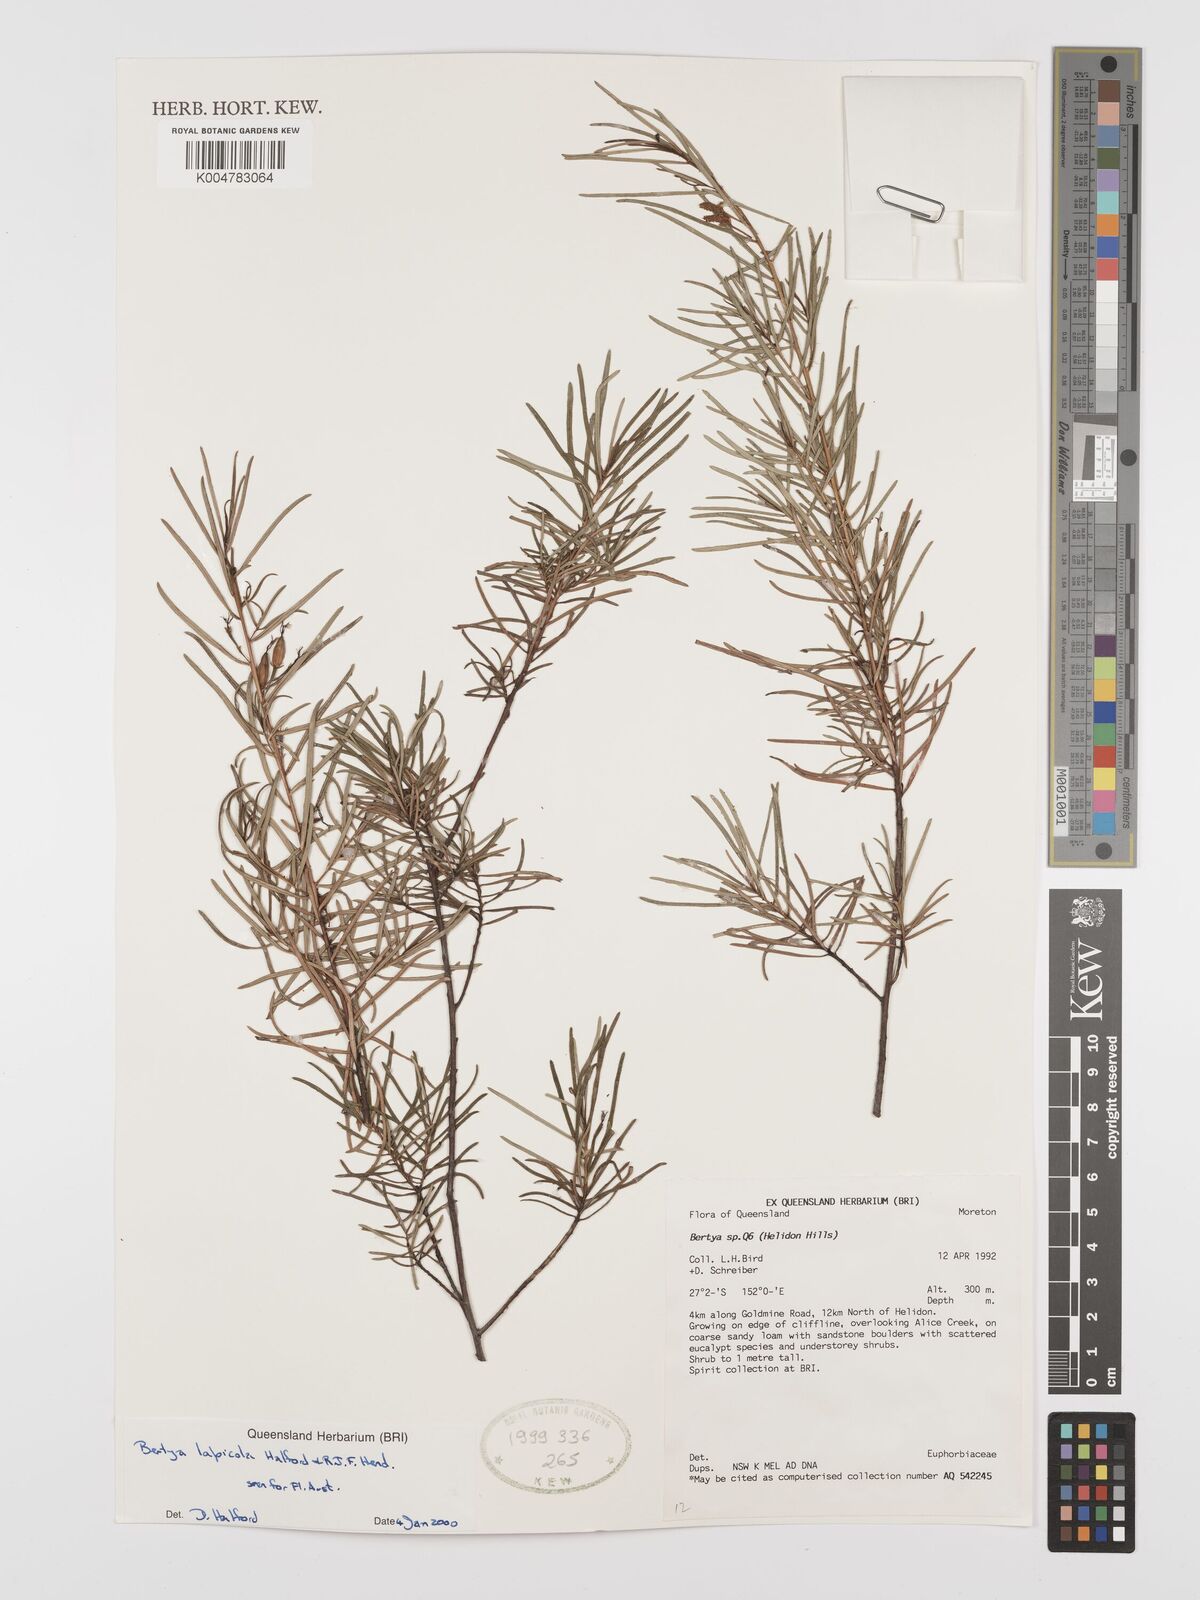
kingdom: Plantae
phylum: Tracheophyta
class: Magnoliopsida
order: Malpighiales
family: Euphorbiaceae
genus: Bertya
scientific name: Bertya lapicola
